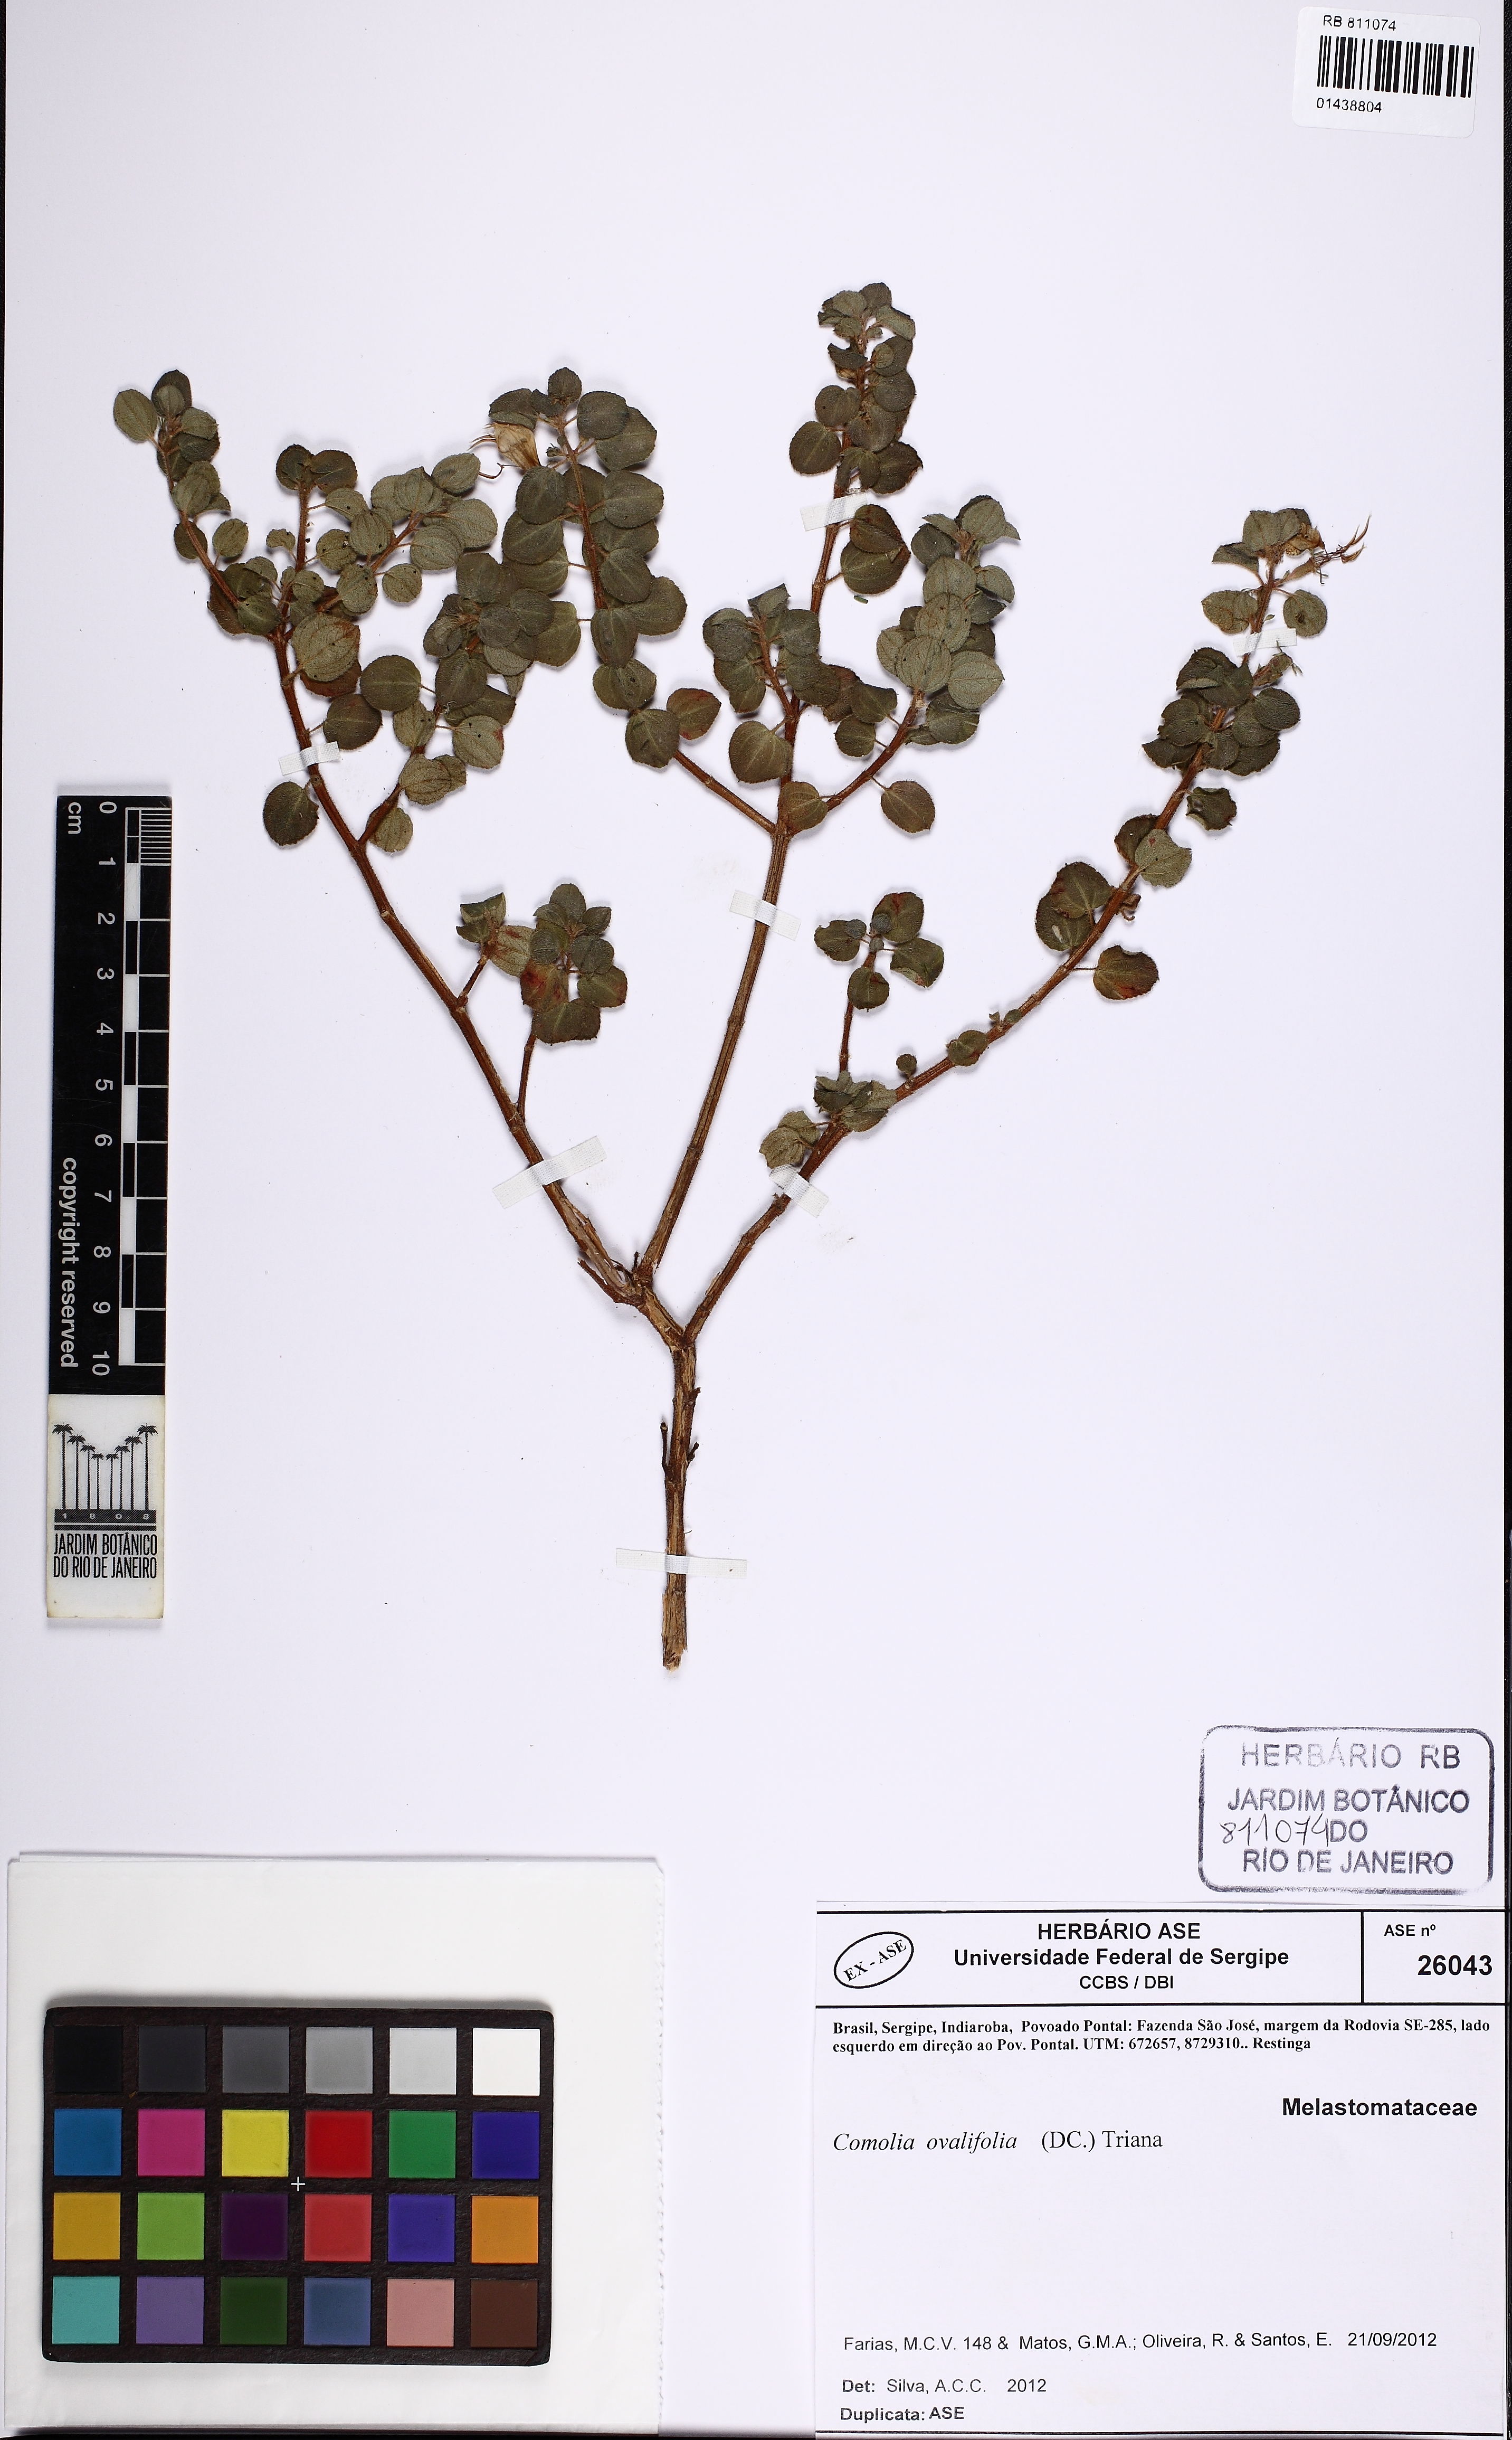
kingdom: Plantae
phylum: Tracheophyta
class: Magnoliopsida
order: Myrtales
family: Melastomataceae
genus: Comolia
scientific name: Comolia ovalifolia
